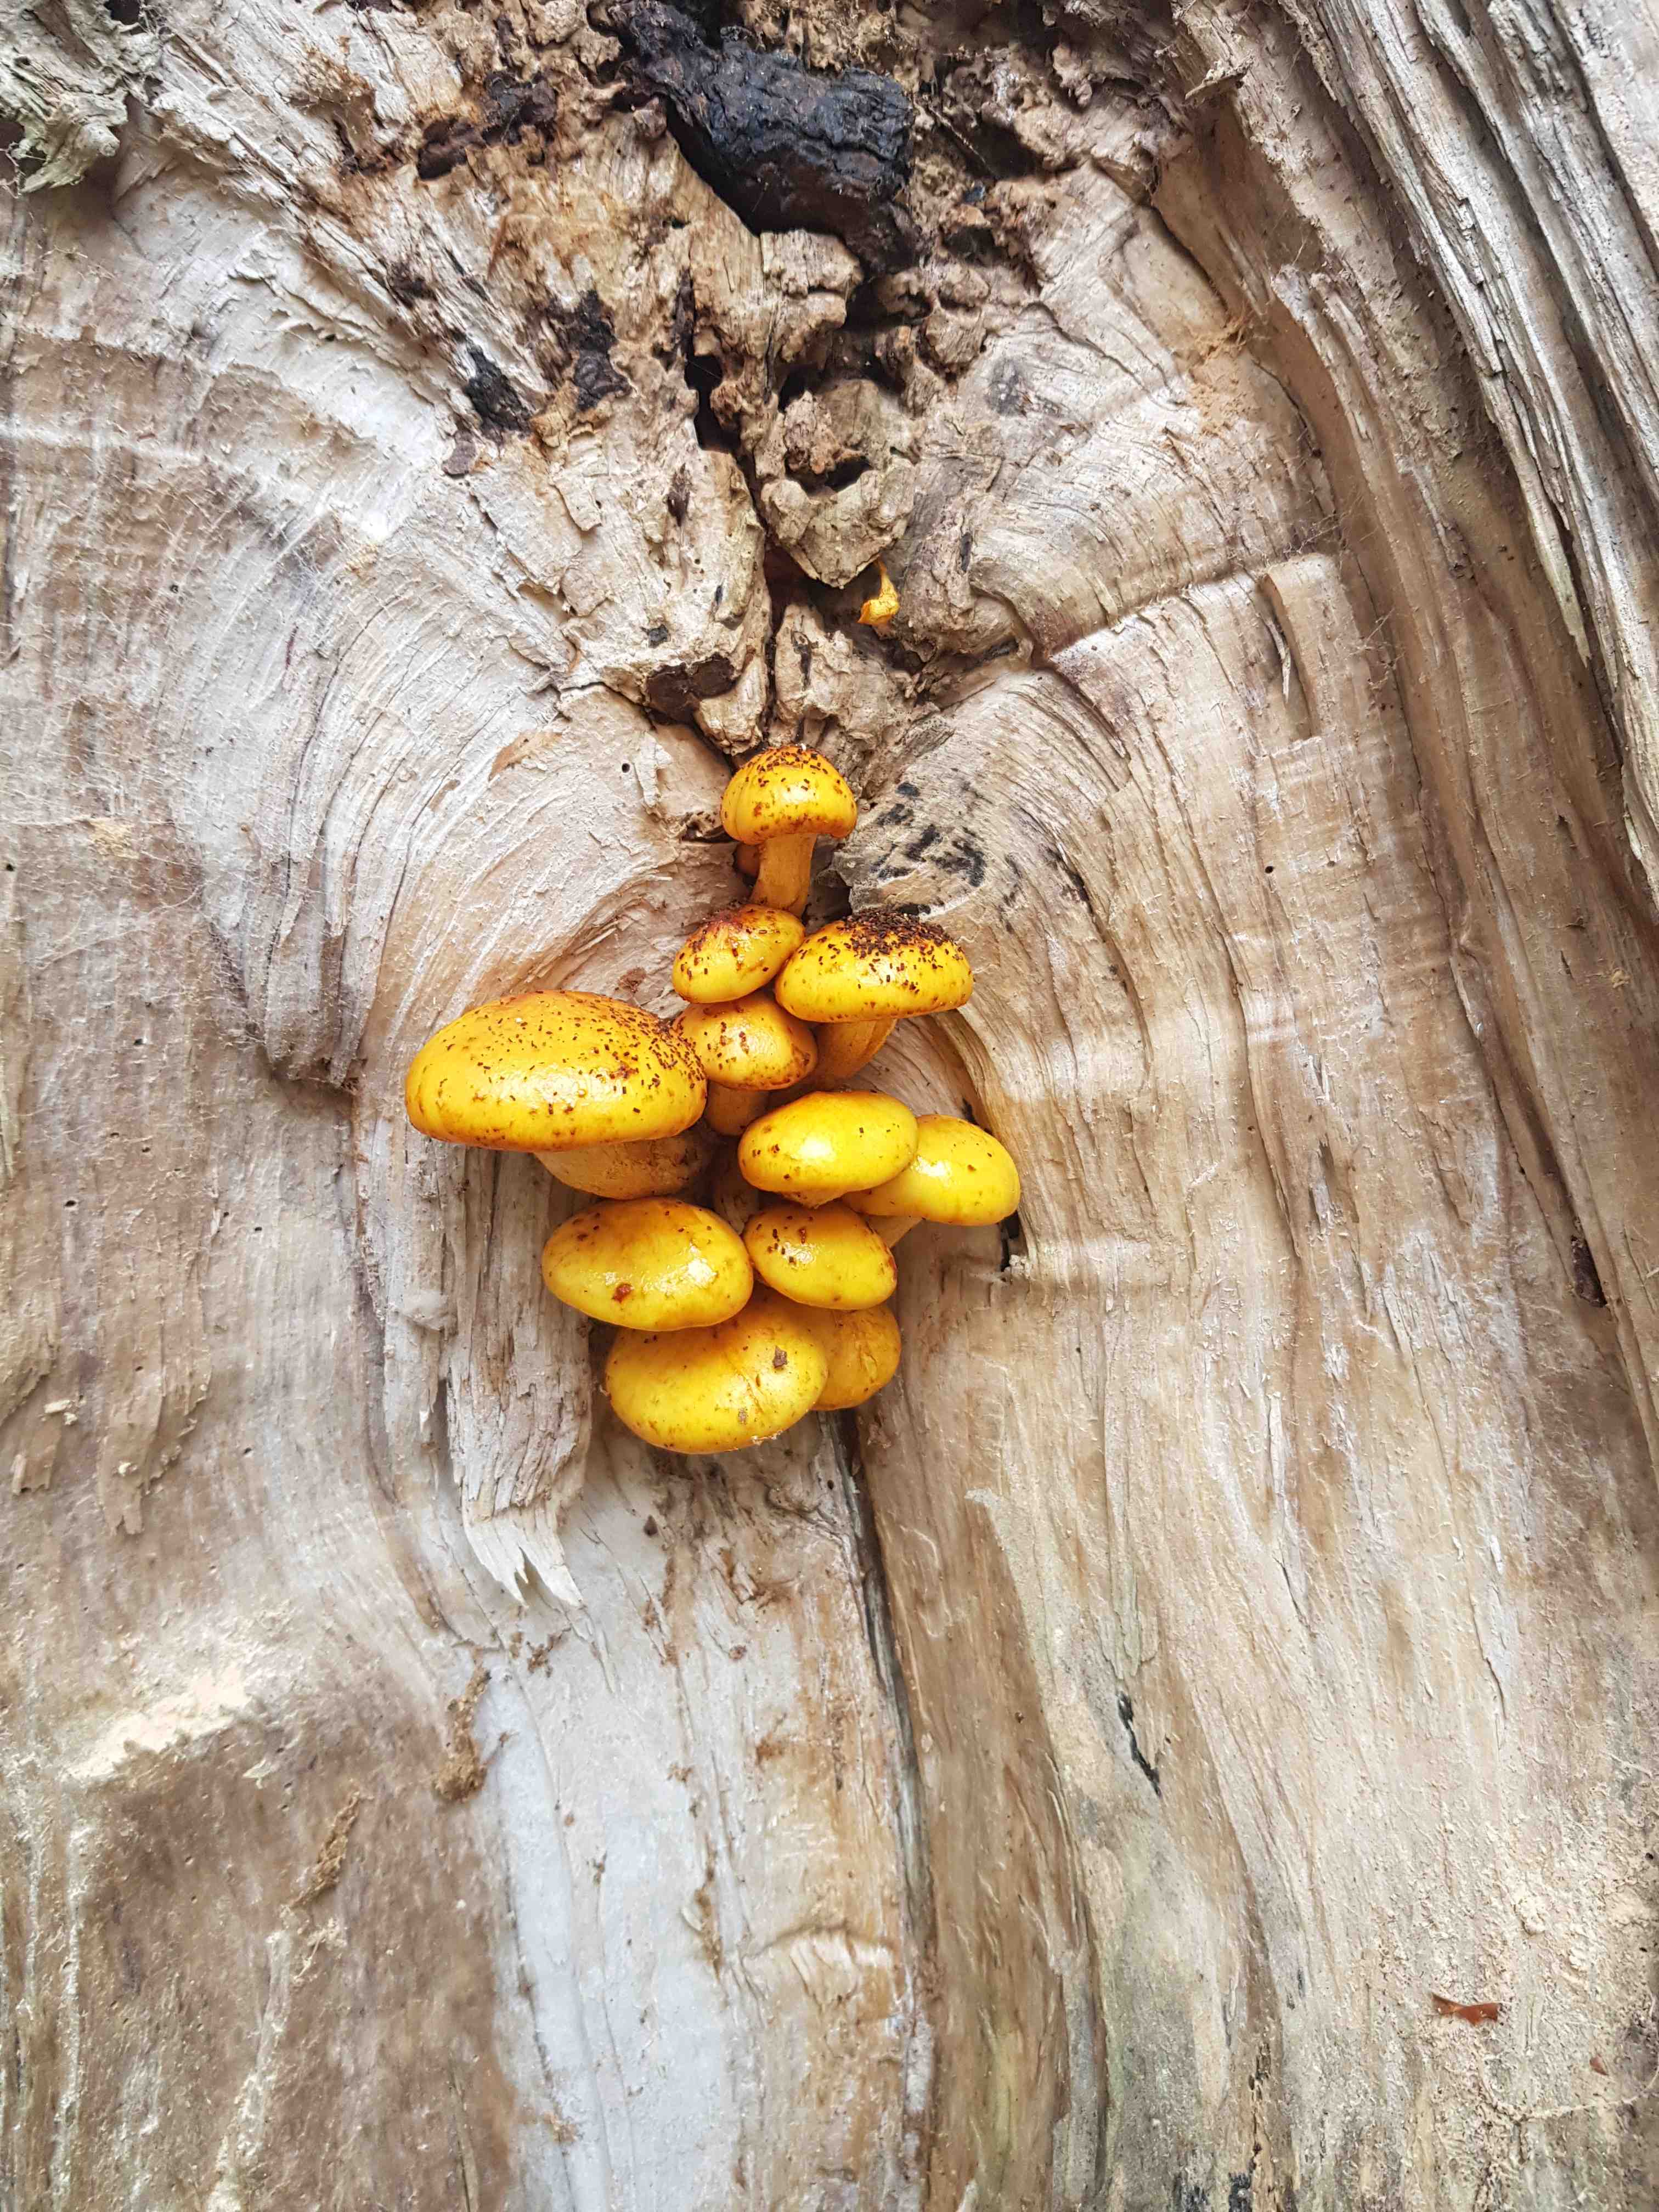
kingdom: Fungi
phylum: Basidiomycota
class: Agaricomycetes
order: Agaricales
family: Strophariaceae
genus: Pholiota
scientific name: Pholiota adiposa
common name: højtsiddende skælhat
